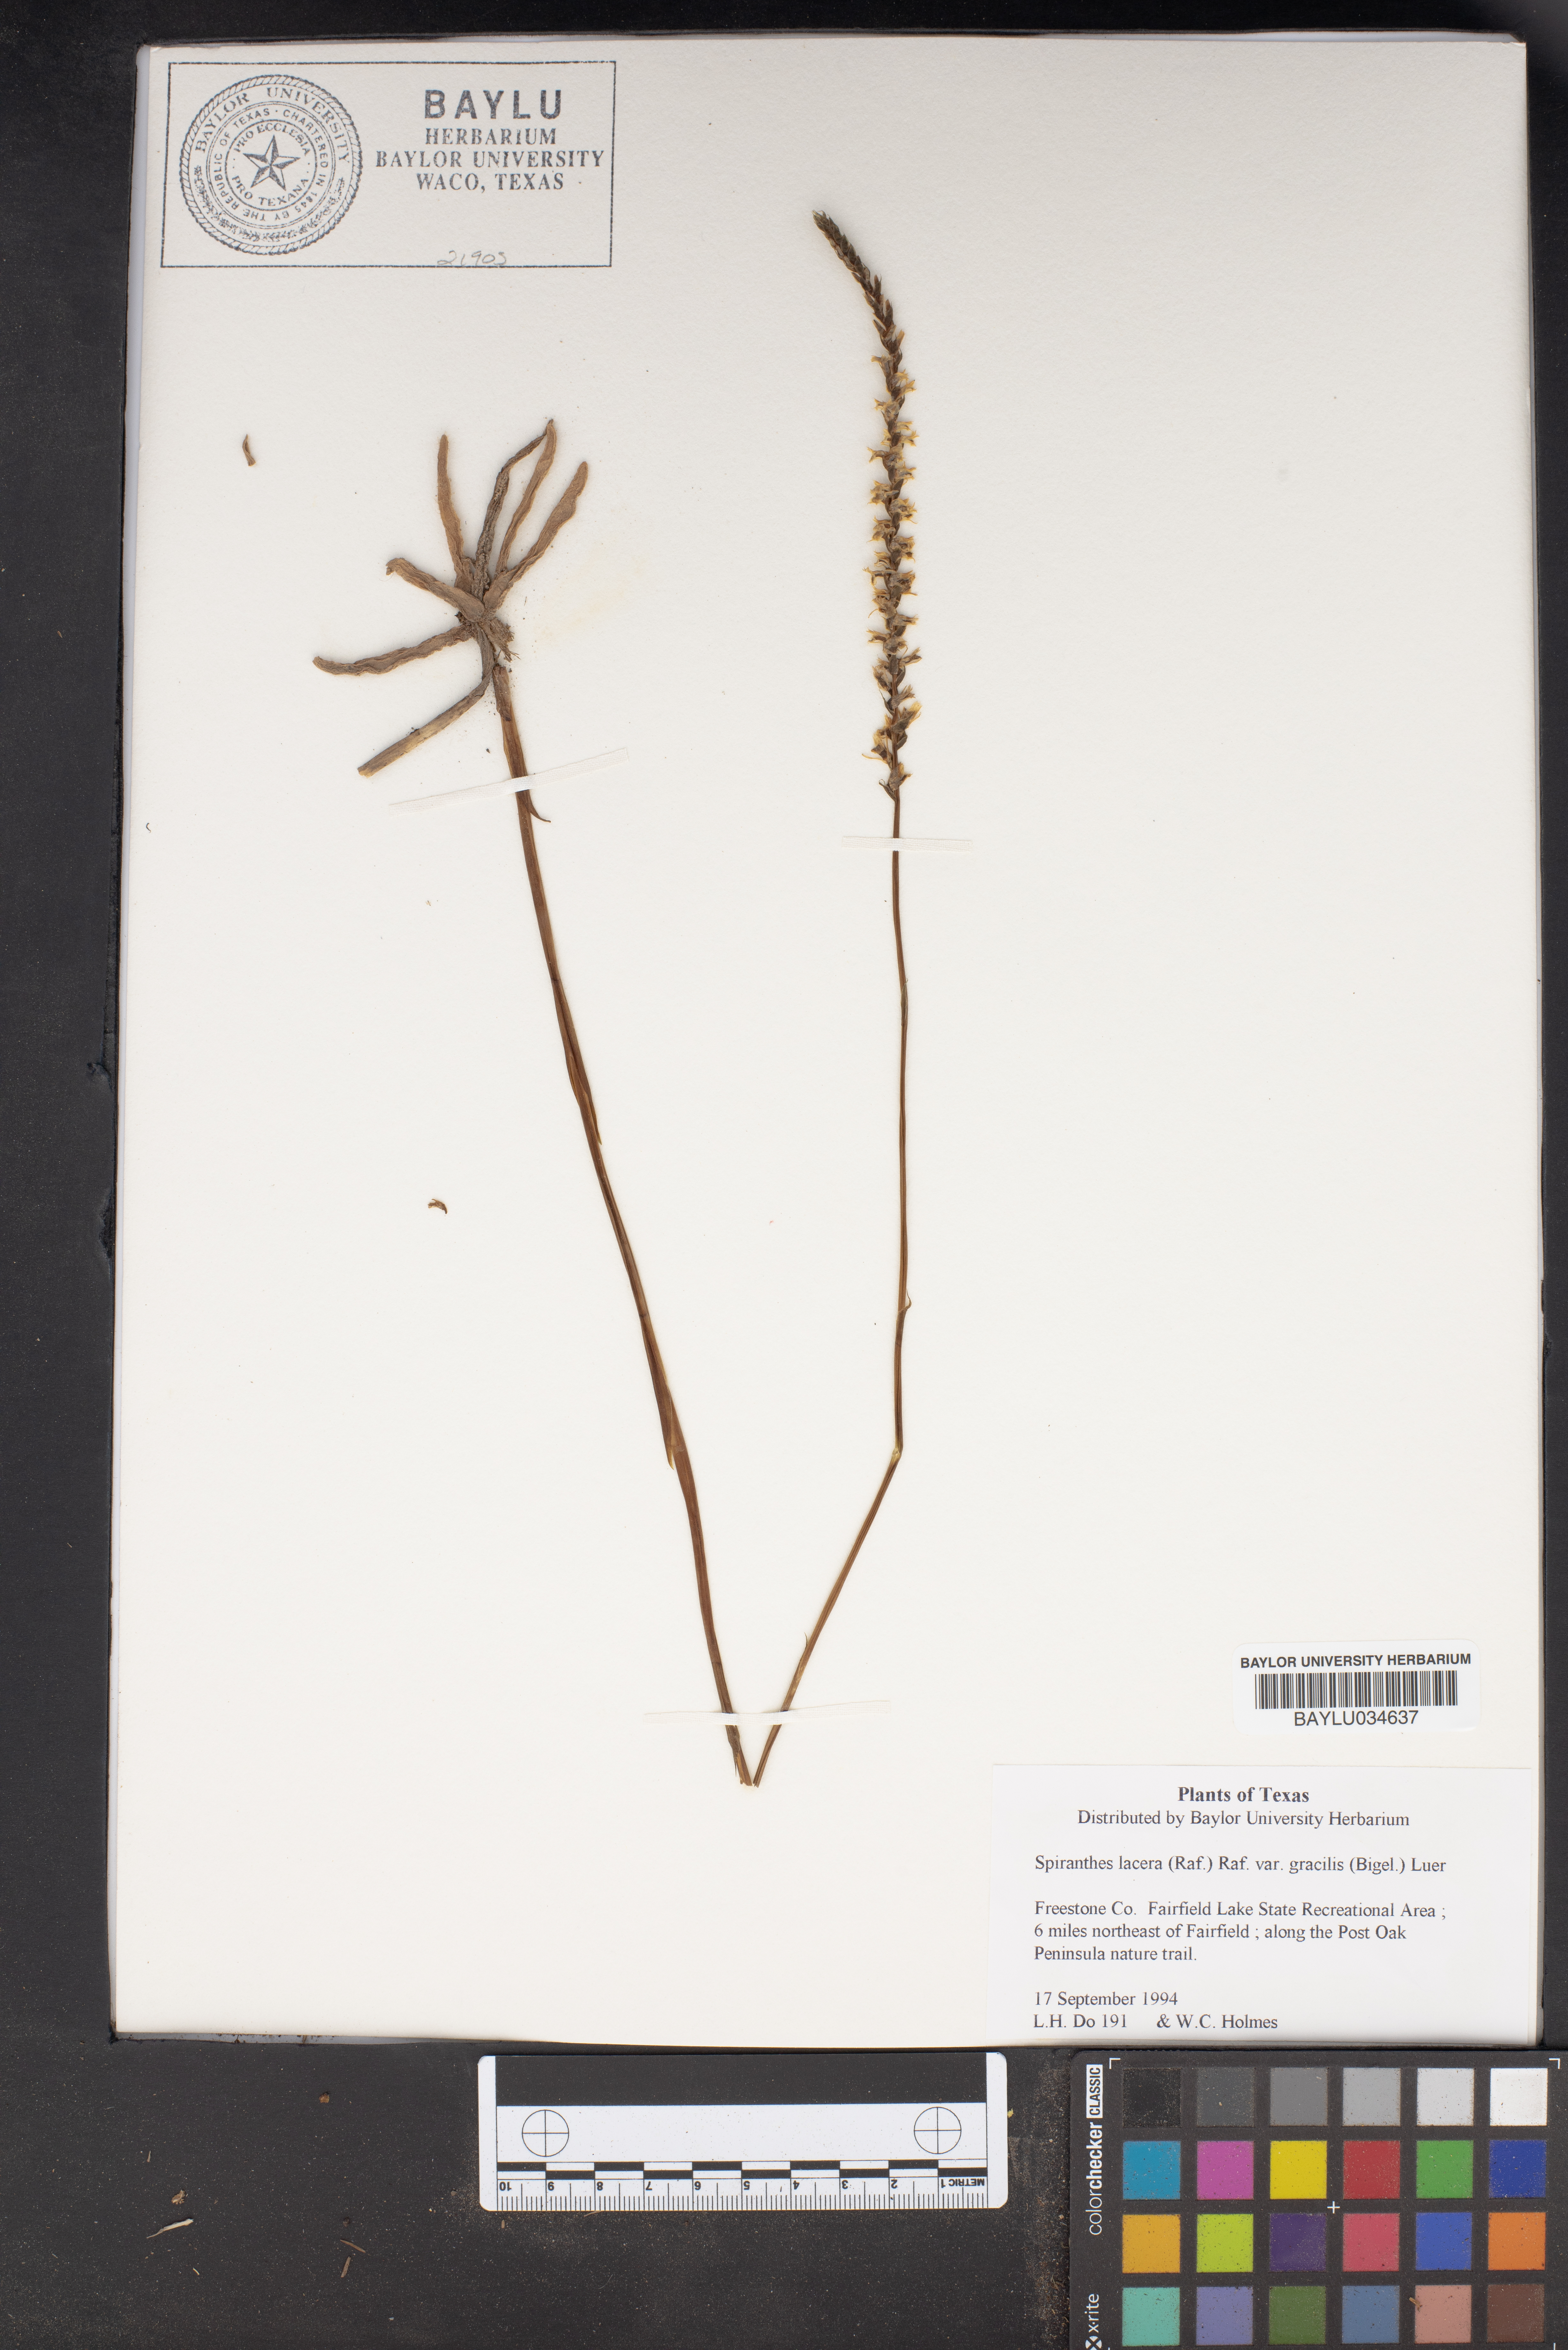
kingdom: Plantae
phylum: Tracheophyta
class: Liliopsida
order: Asparagales
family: Orchidaceae
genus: Spiranthes
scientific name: Spiranthes lacera
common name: Northern slender ladies'-tresses
